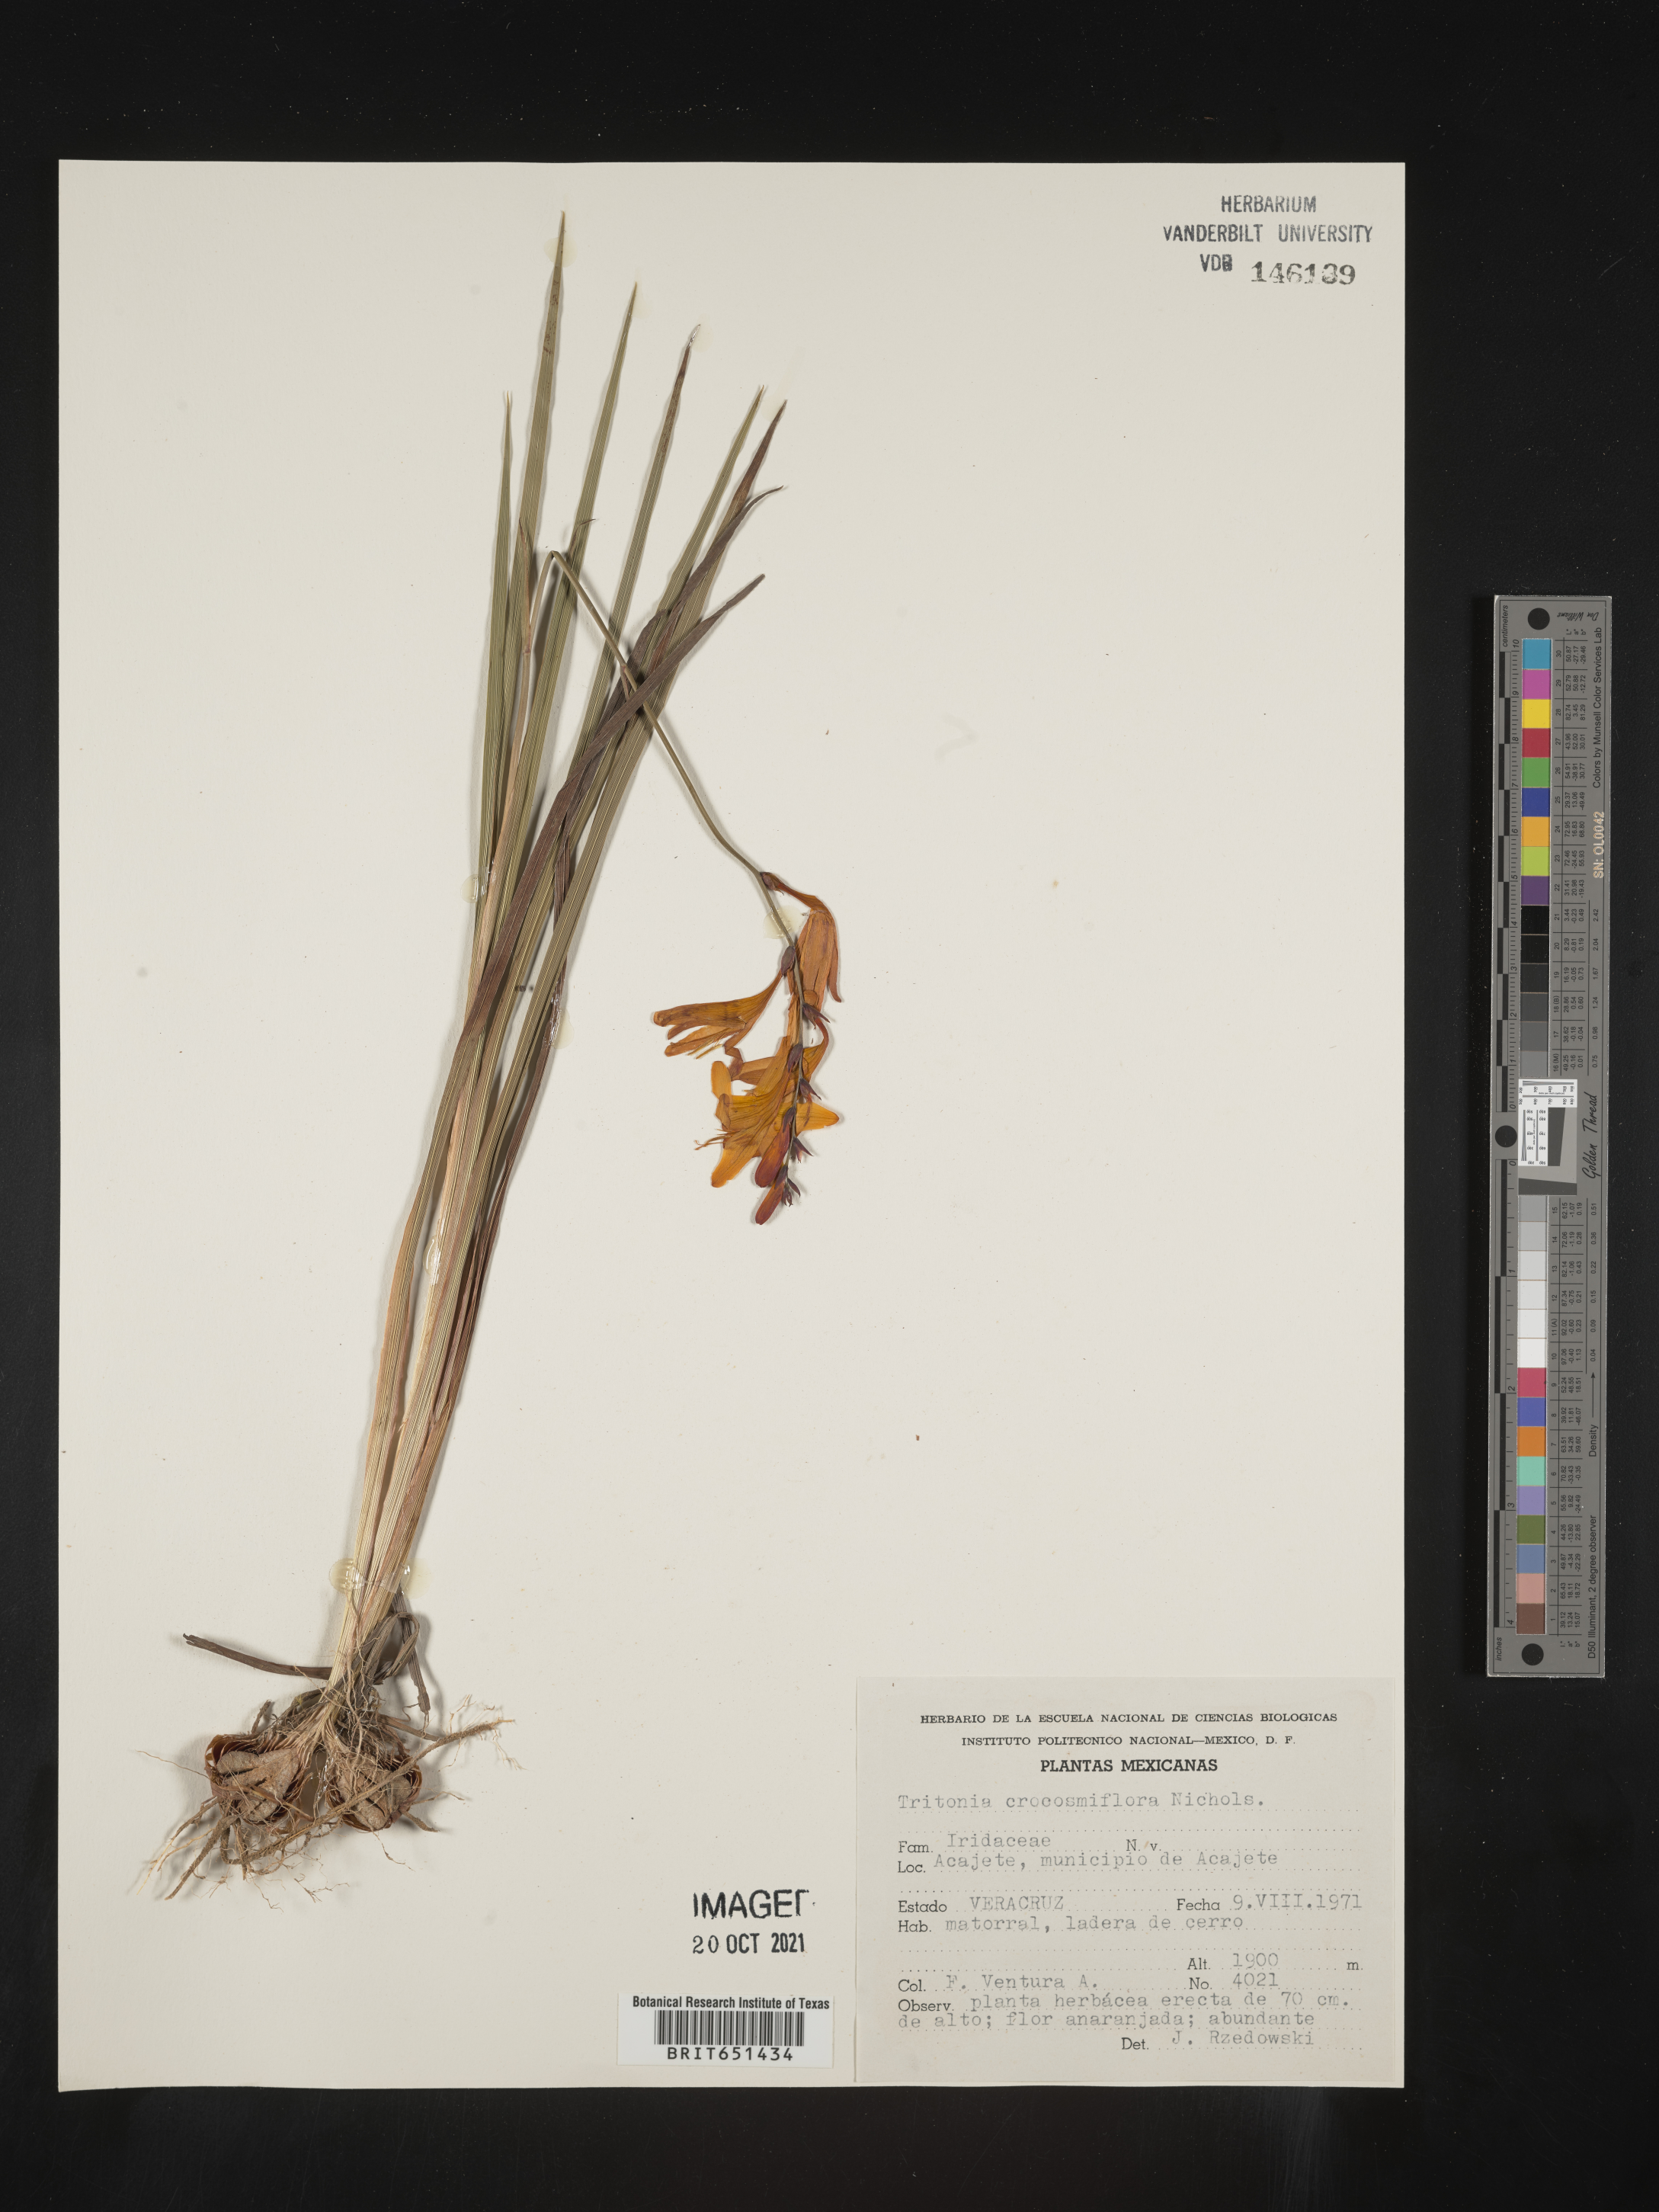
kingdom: Plantae
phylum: Tracheophyta
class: Liliopsida
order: Asparagales
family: Iridaceae
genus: Tritonia
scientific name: Tritonia
